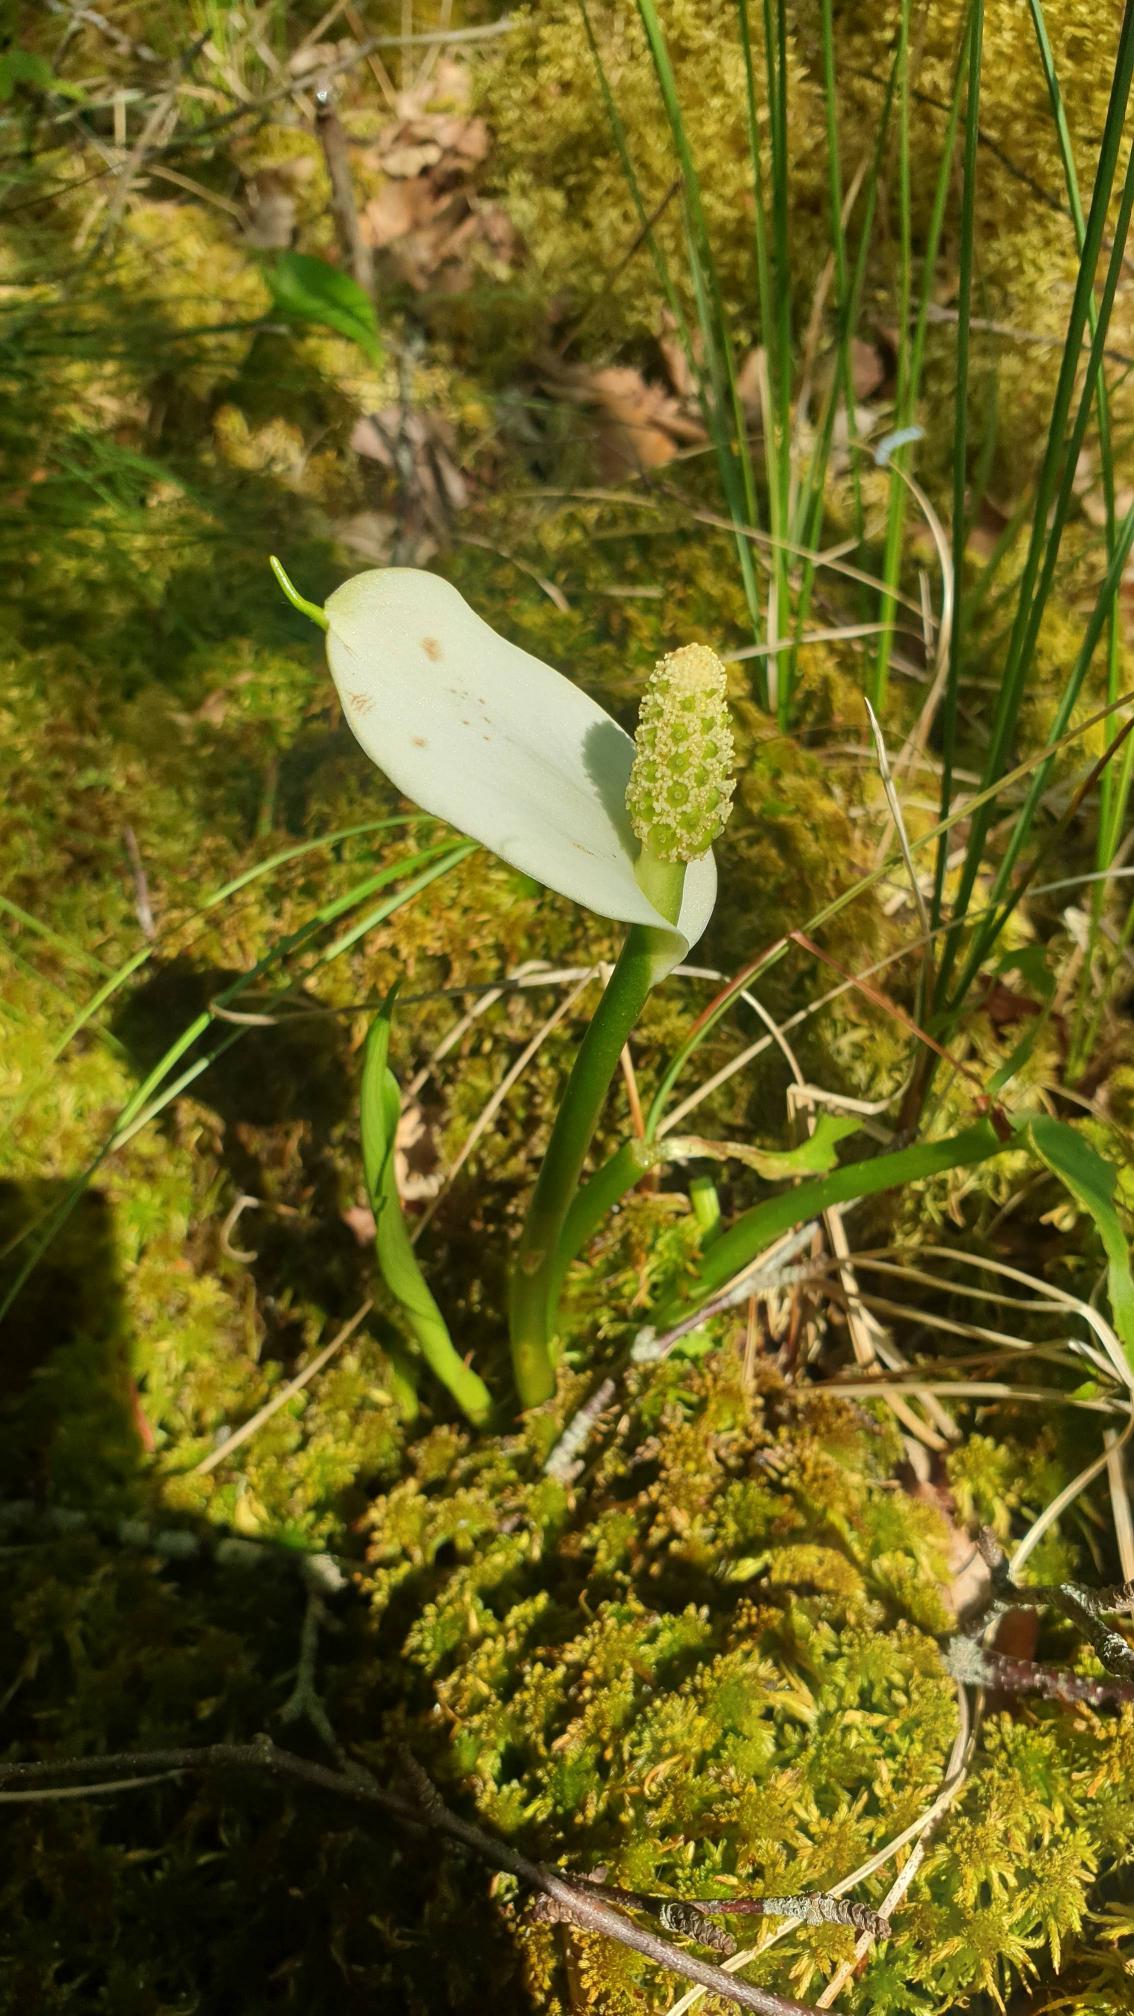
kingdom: Plantae
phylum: Tracheophyta
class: Liliopsida
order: Alismatales
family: Araceae
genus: Calla
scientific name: Calla palustris
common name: Kærmysse
